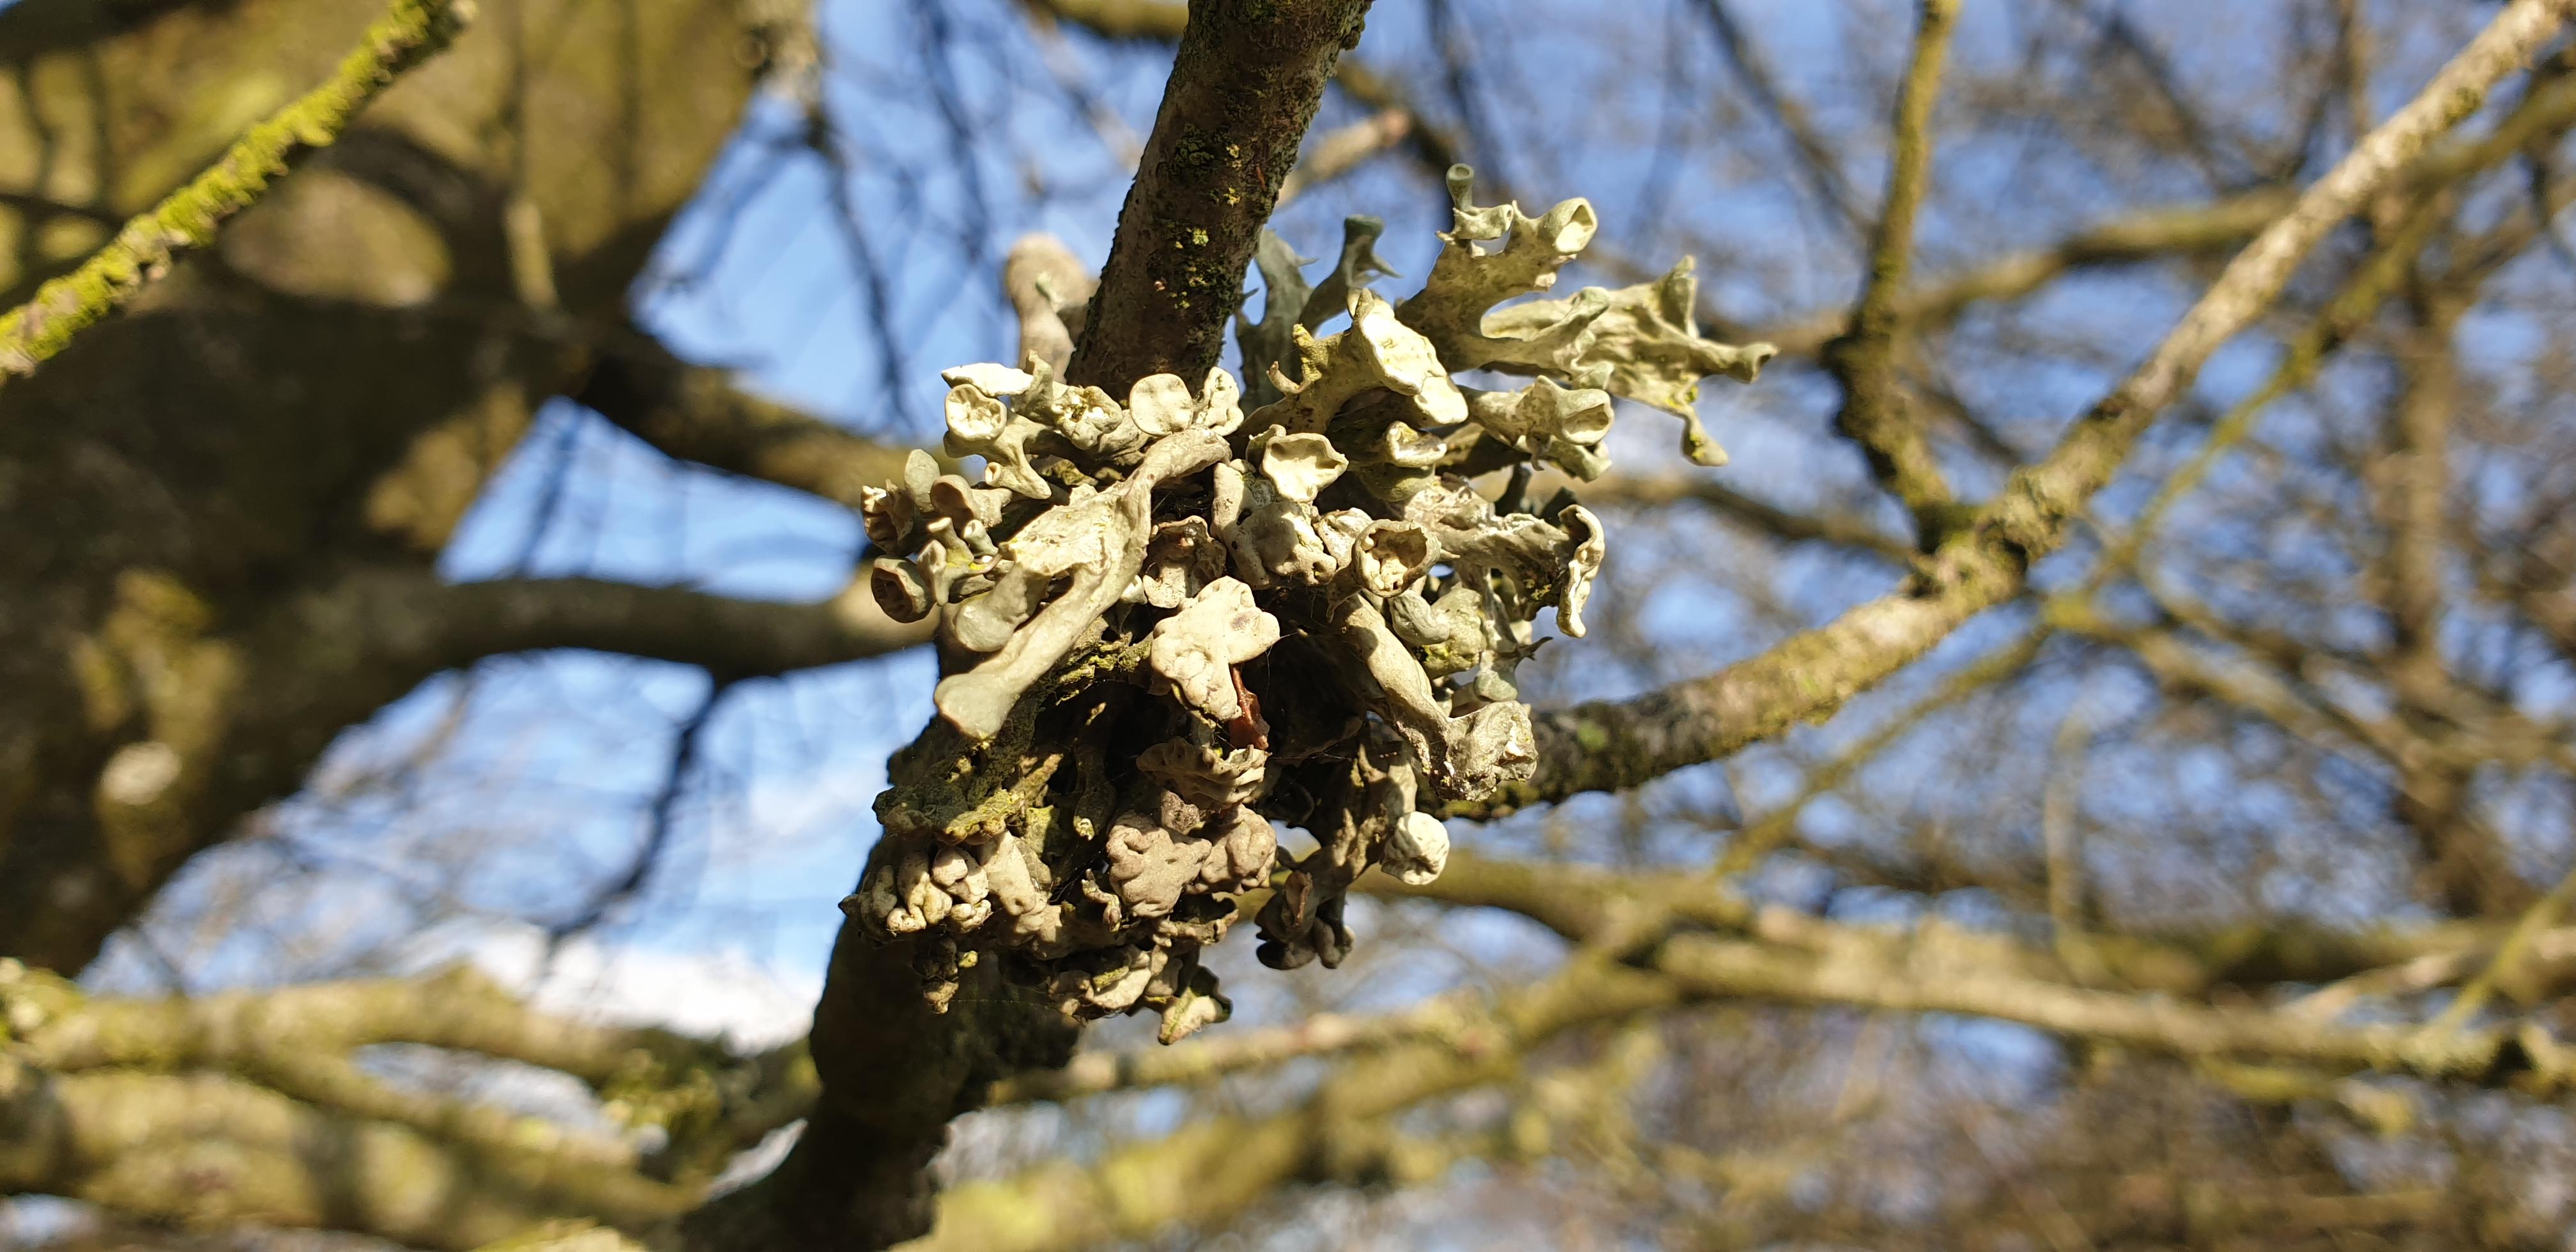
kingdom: Fungi
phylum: Ascomycota
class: Lecanoromycetes
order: Lecanorales
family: Ramalinaceae
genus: Ramalina
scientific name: Ramalina fastigiata
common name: tue-grenlav
